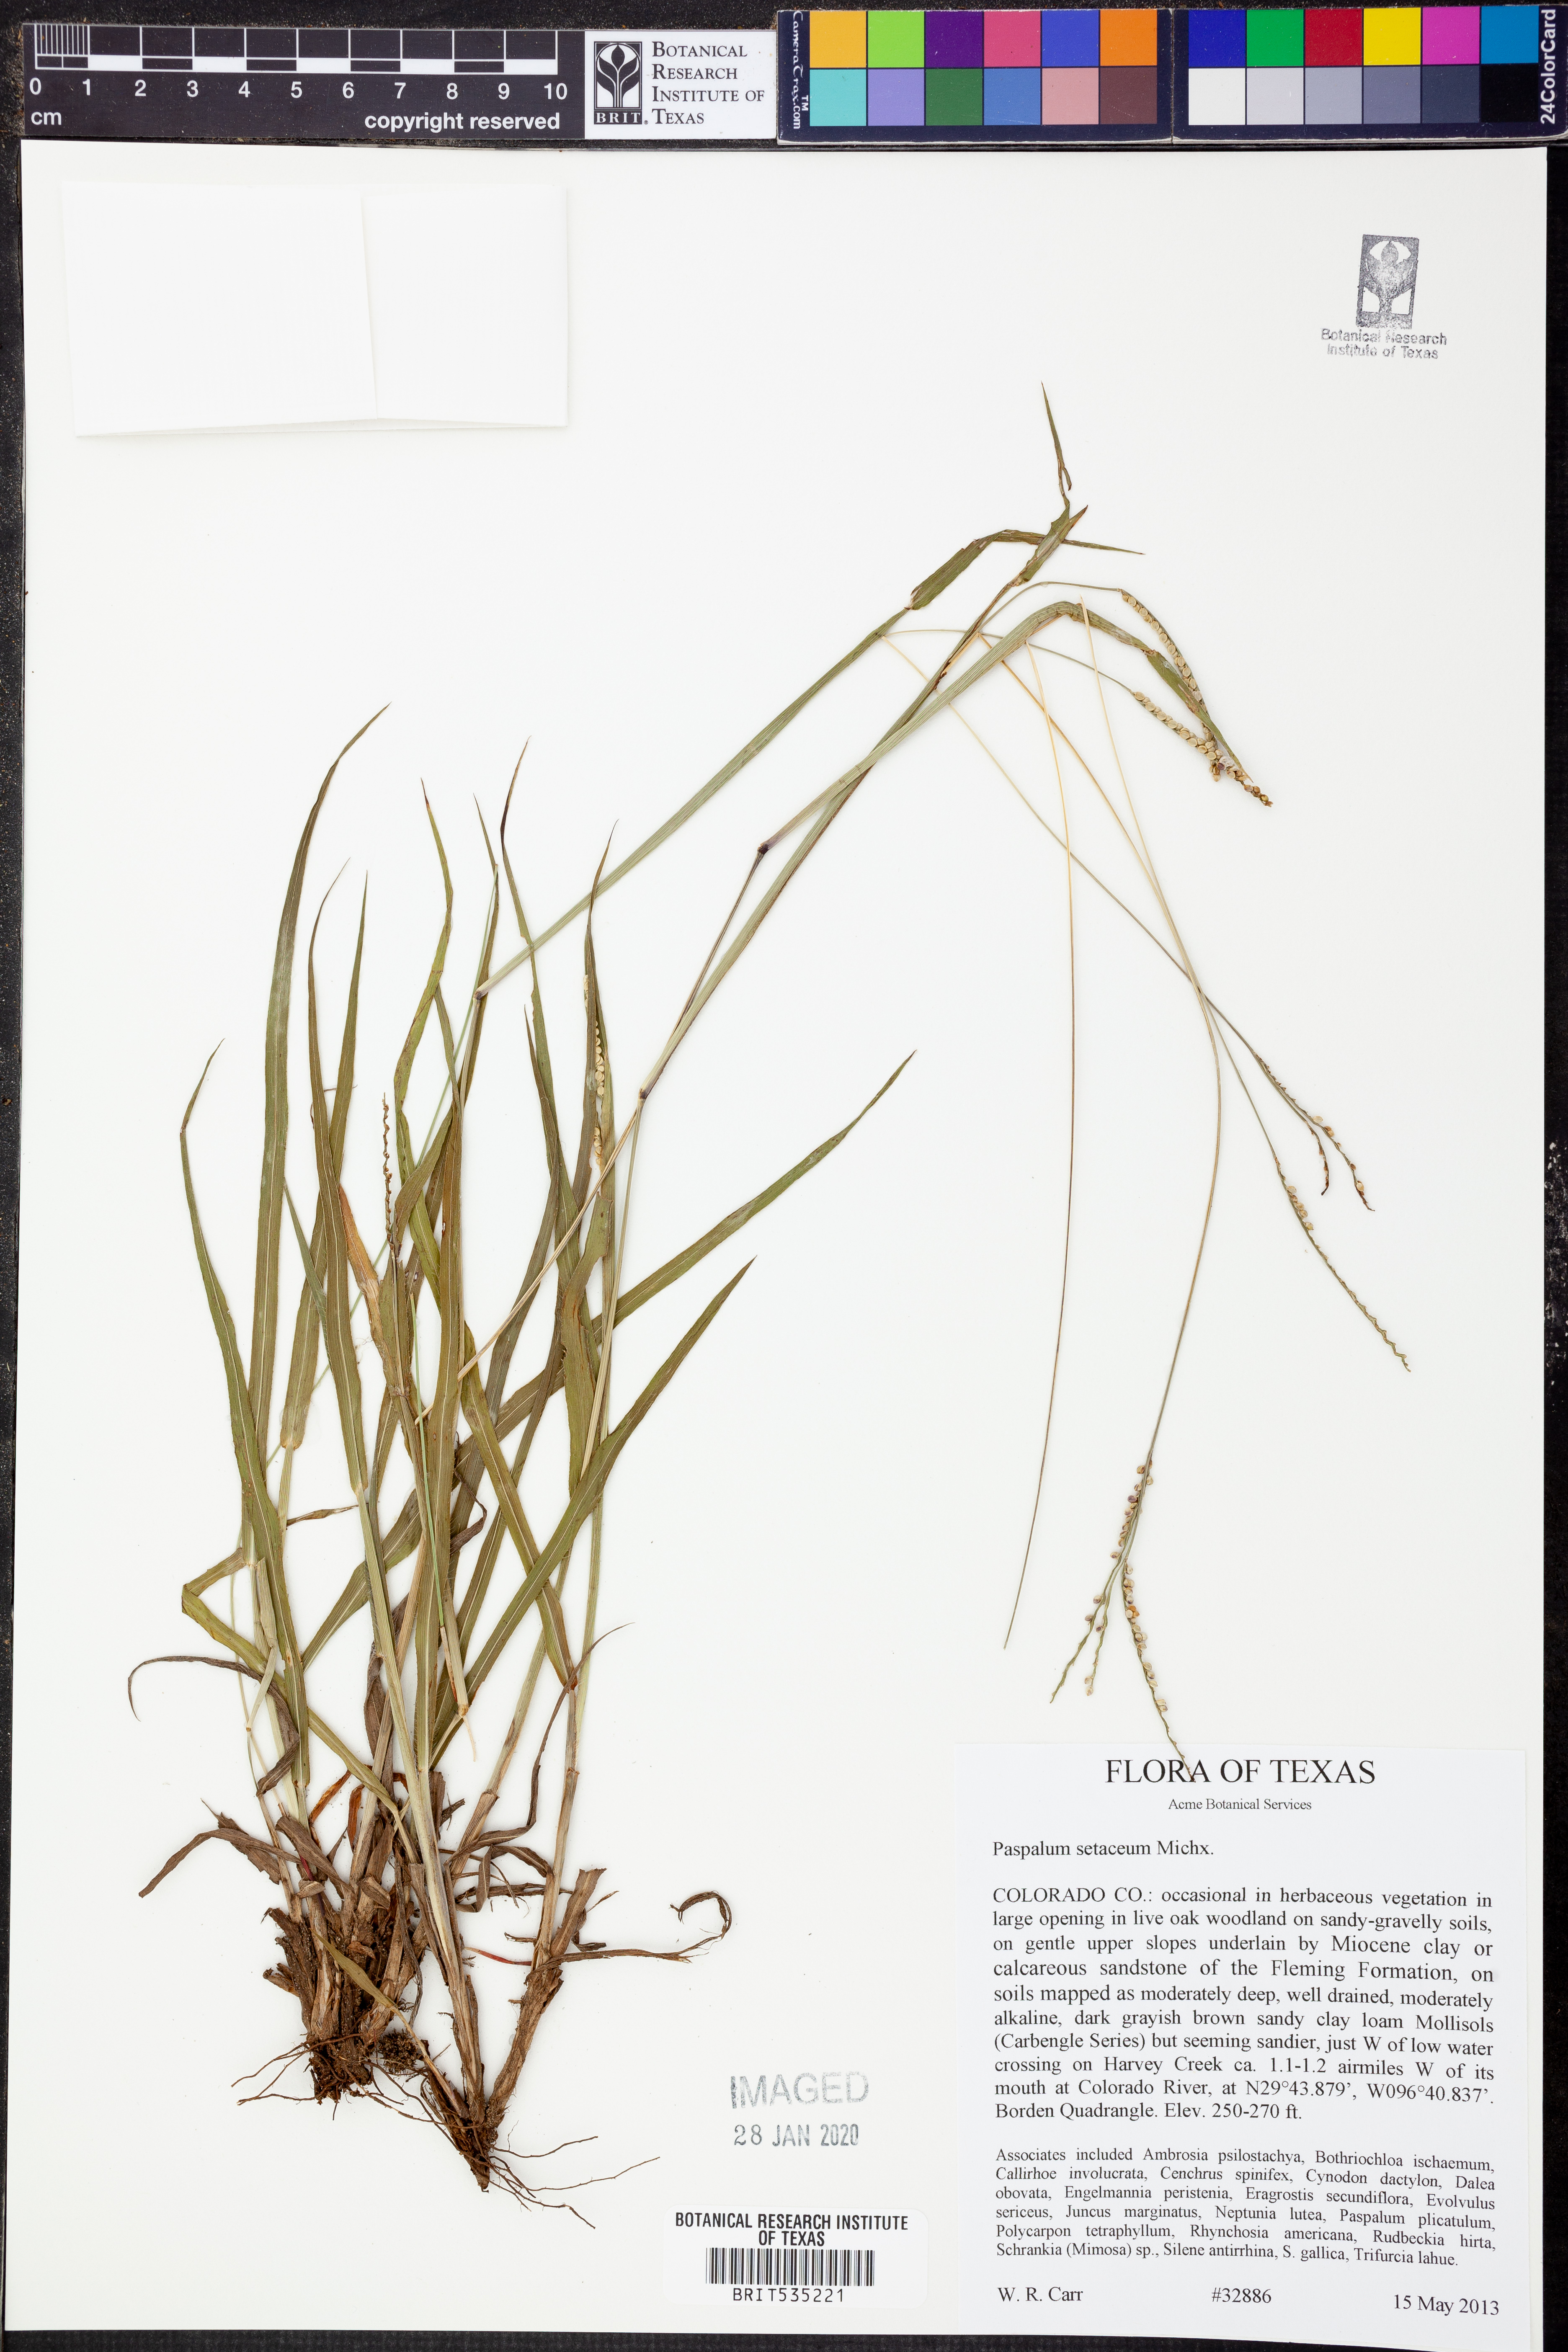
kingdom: Plantae
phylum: Tracheophyta
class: Liliopsida
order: Poales
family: Poaceae
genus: Paspalum
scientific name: Paspalum setaceum
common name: Slender paspalum
